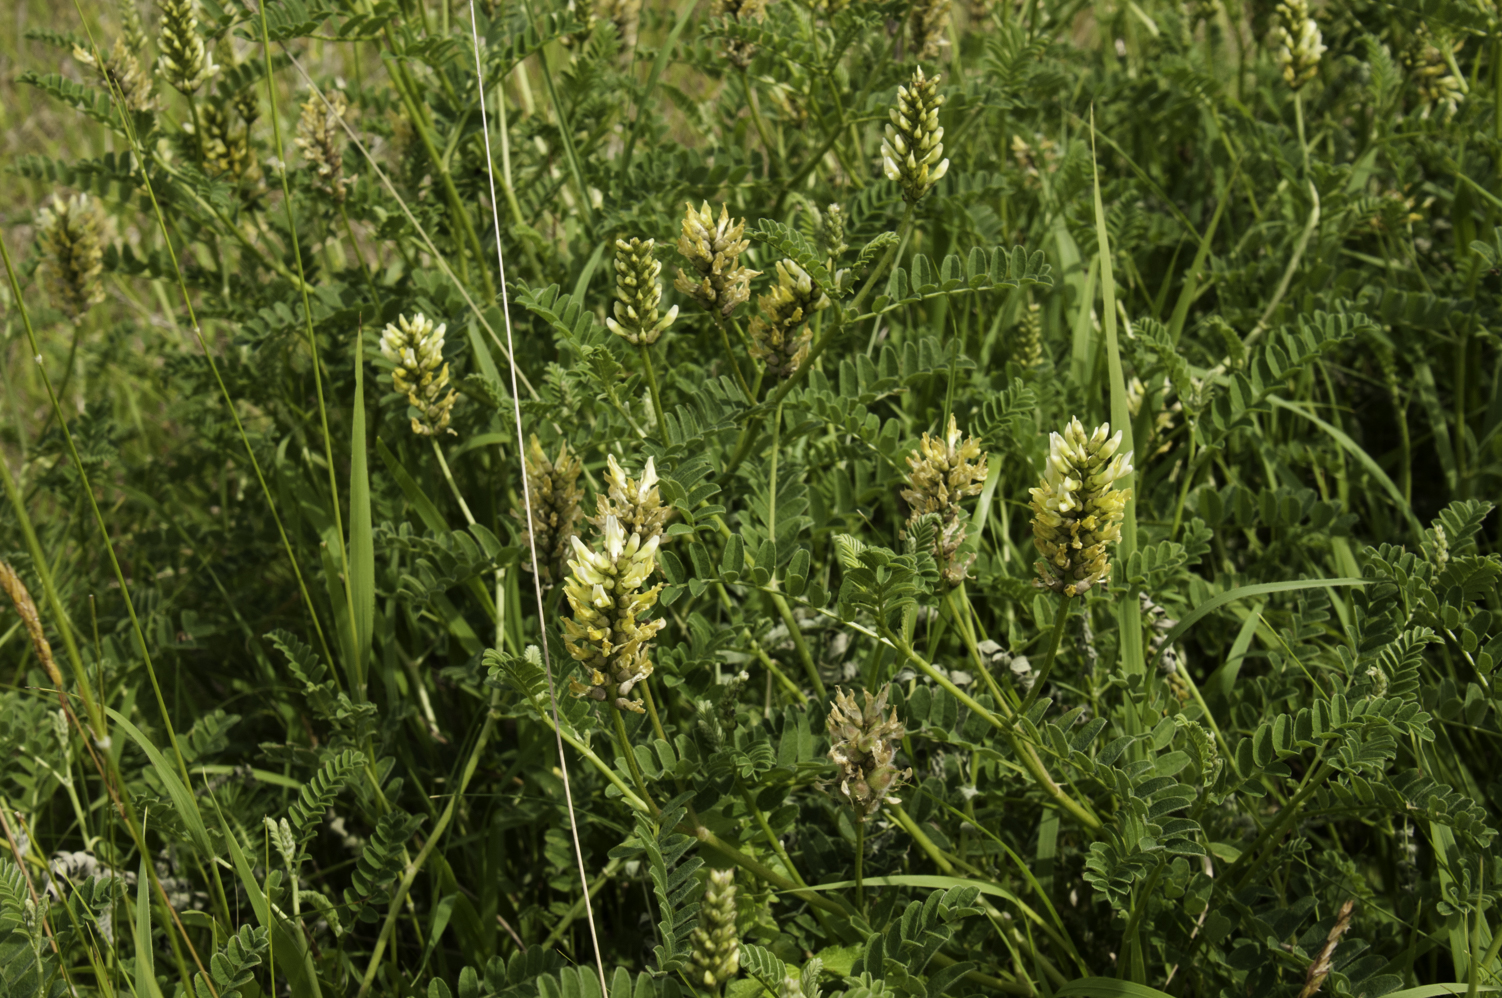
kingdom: Plantae
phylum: Tracheophyta
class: Magnoliopsida
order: Fabales
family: Fabaceae
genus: Astragalus
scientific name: Astragalus cicer
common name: Chick-pea milk-vetch
